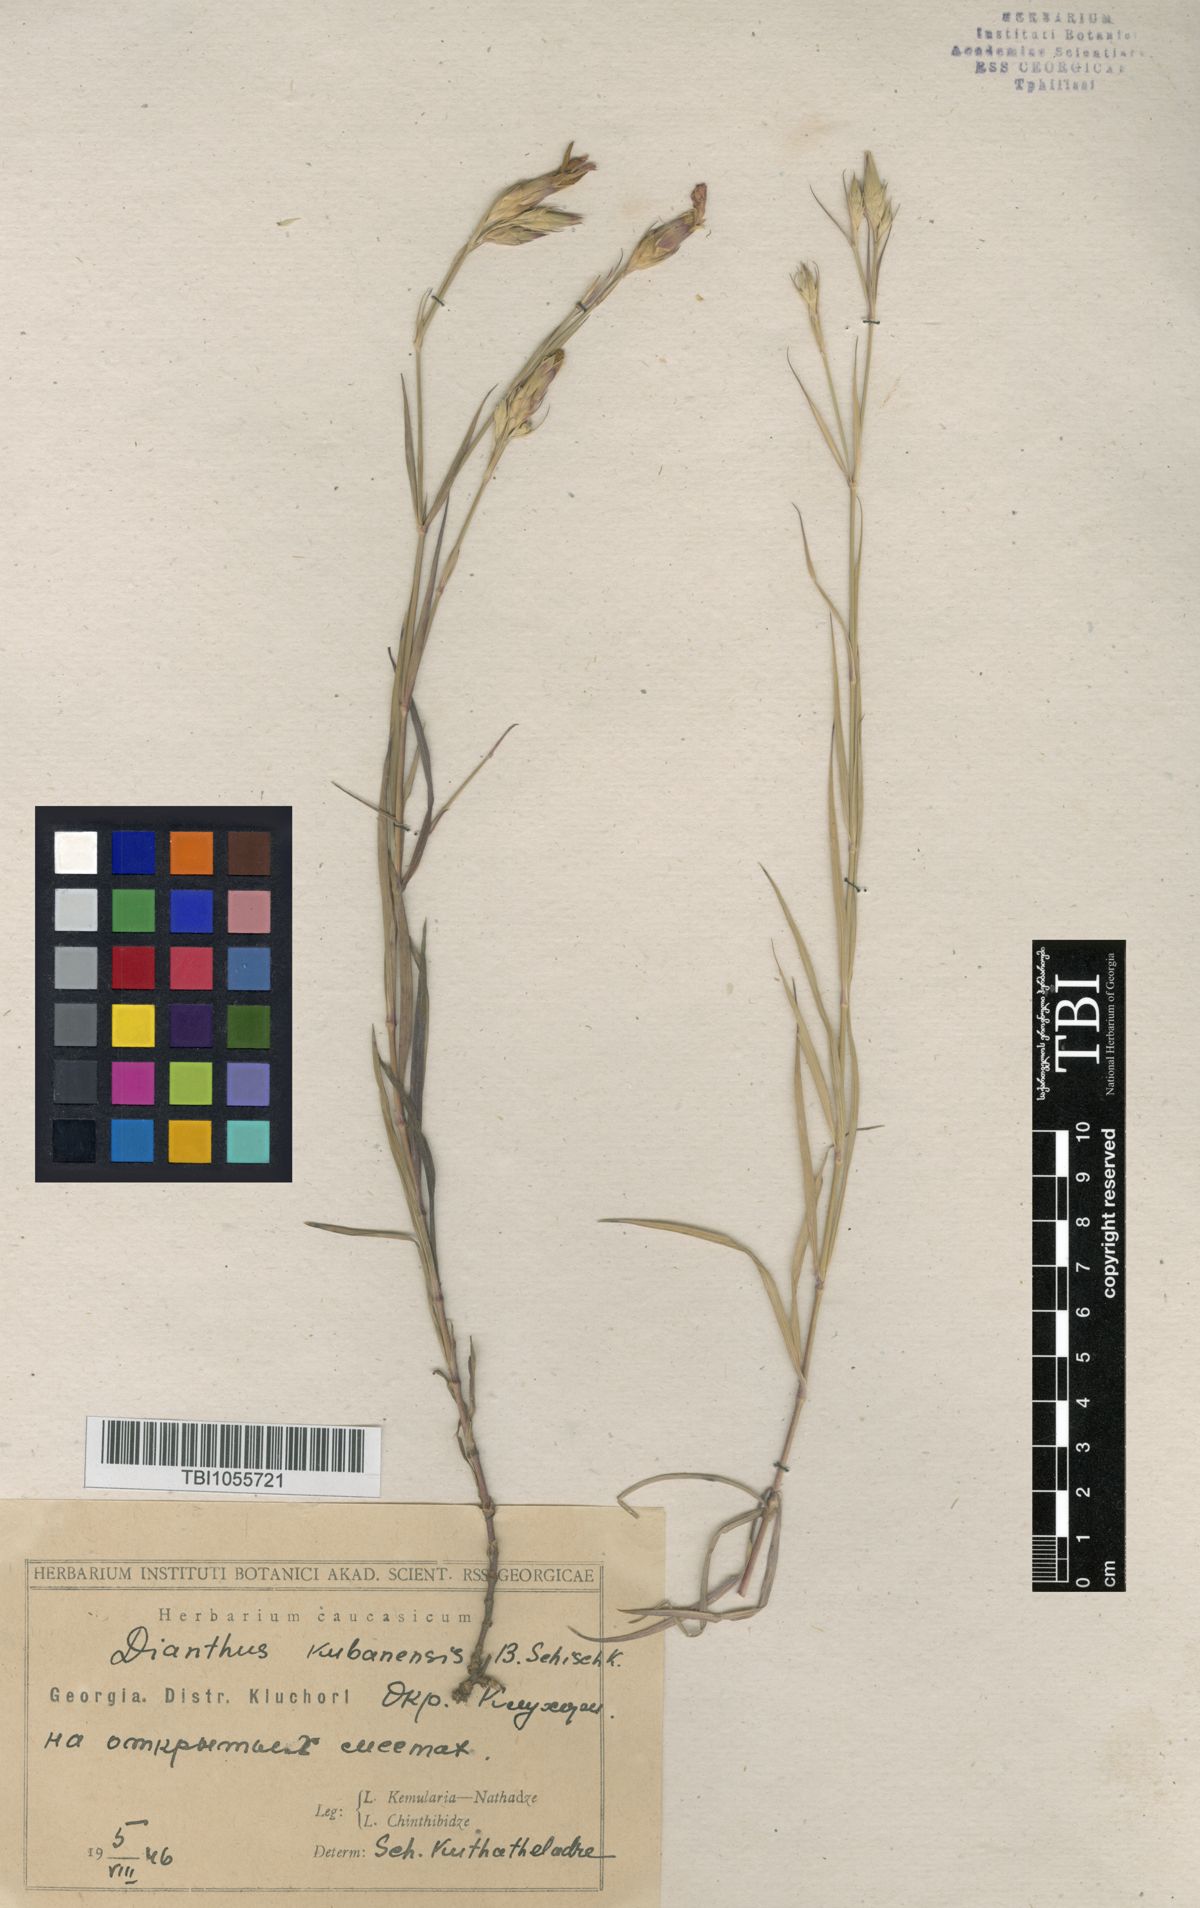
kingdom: Plantae
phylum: Tracheophyta
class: Magnoliopsida
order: Caryophyllales
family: Caryophyllaceae
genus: Dianthus
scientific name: Dianthus
